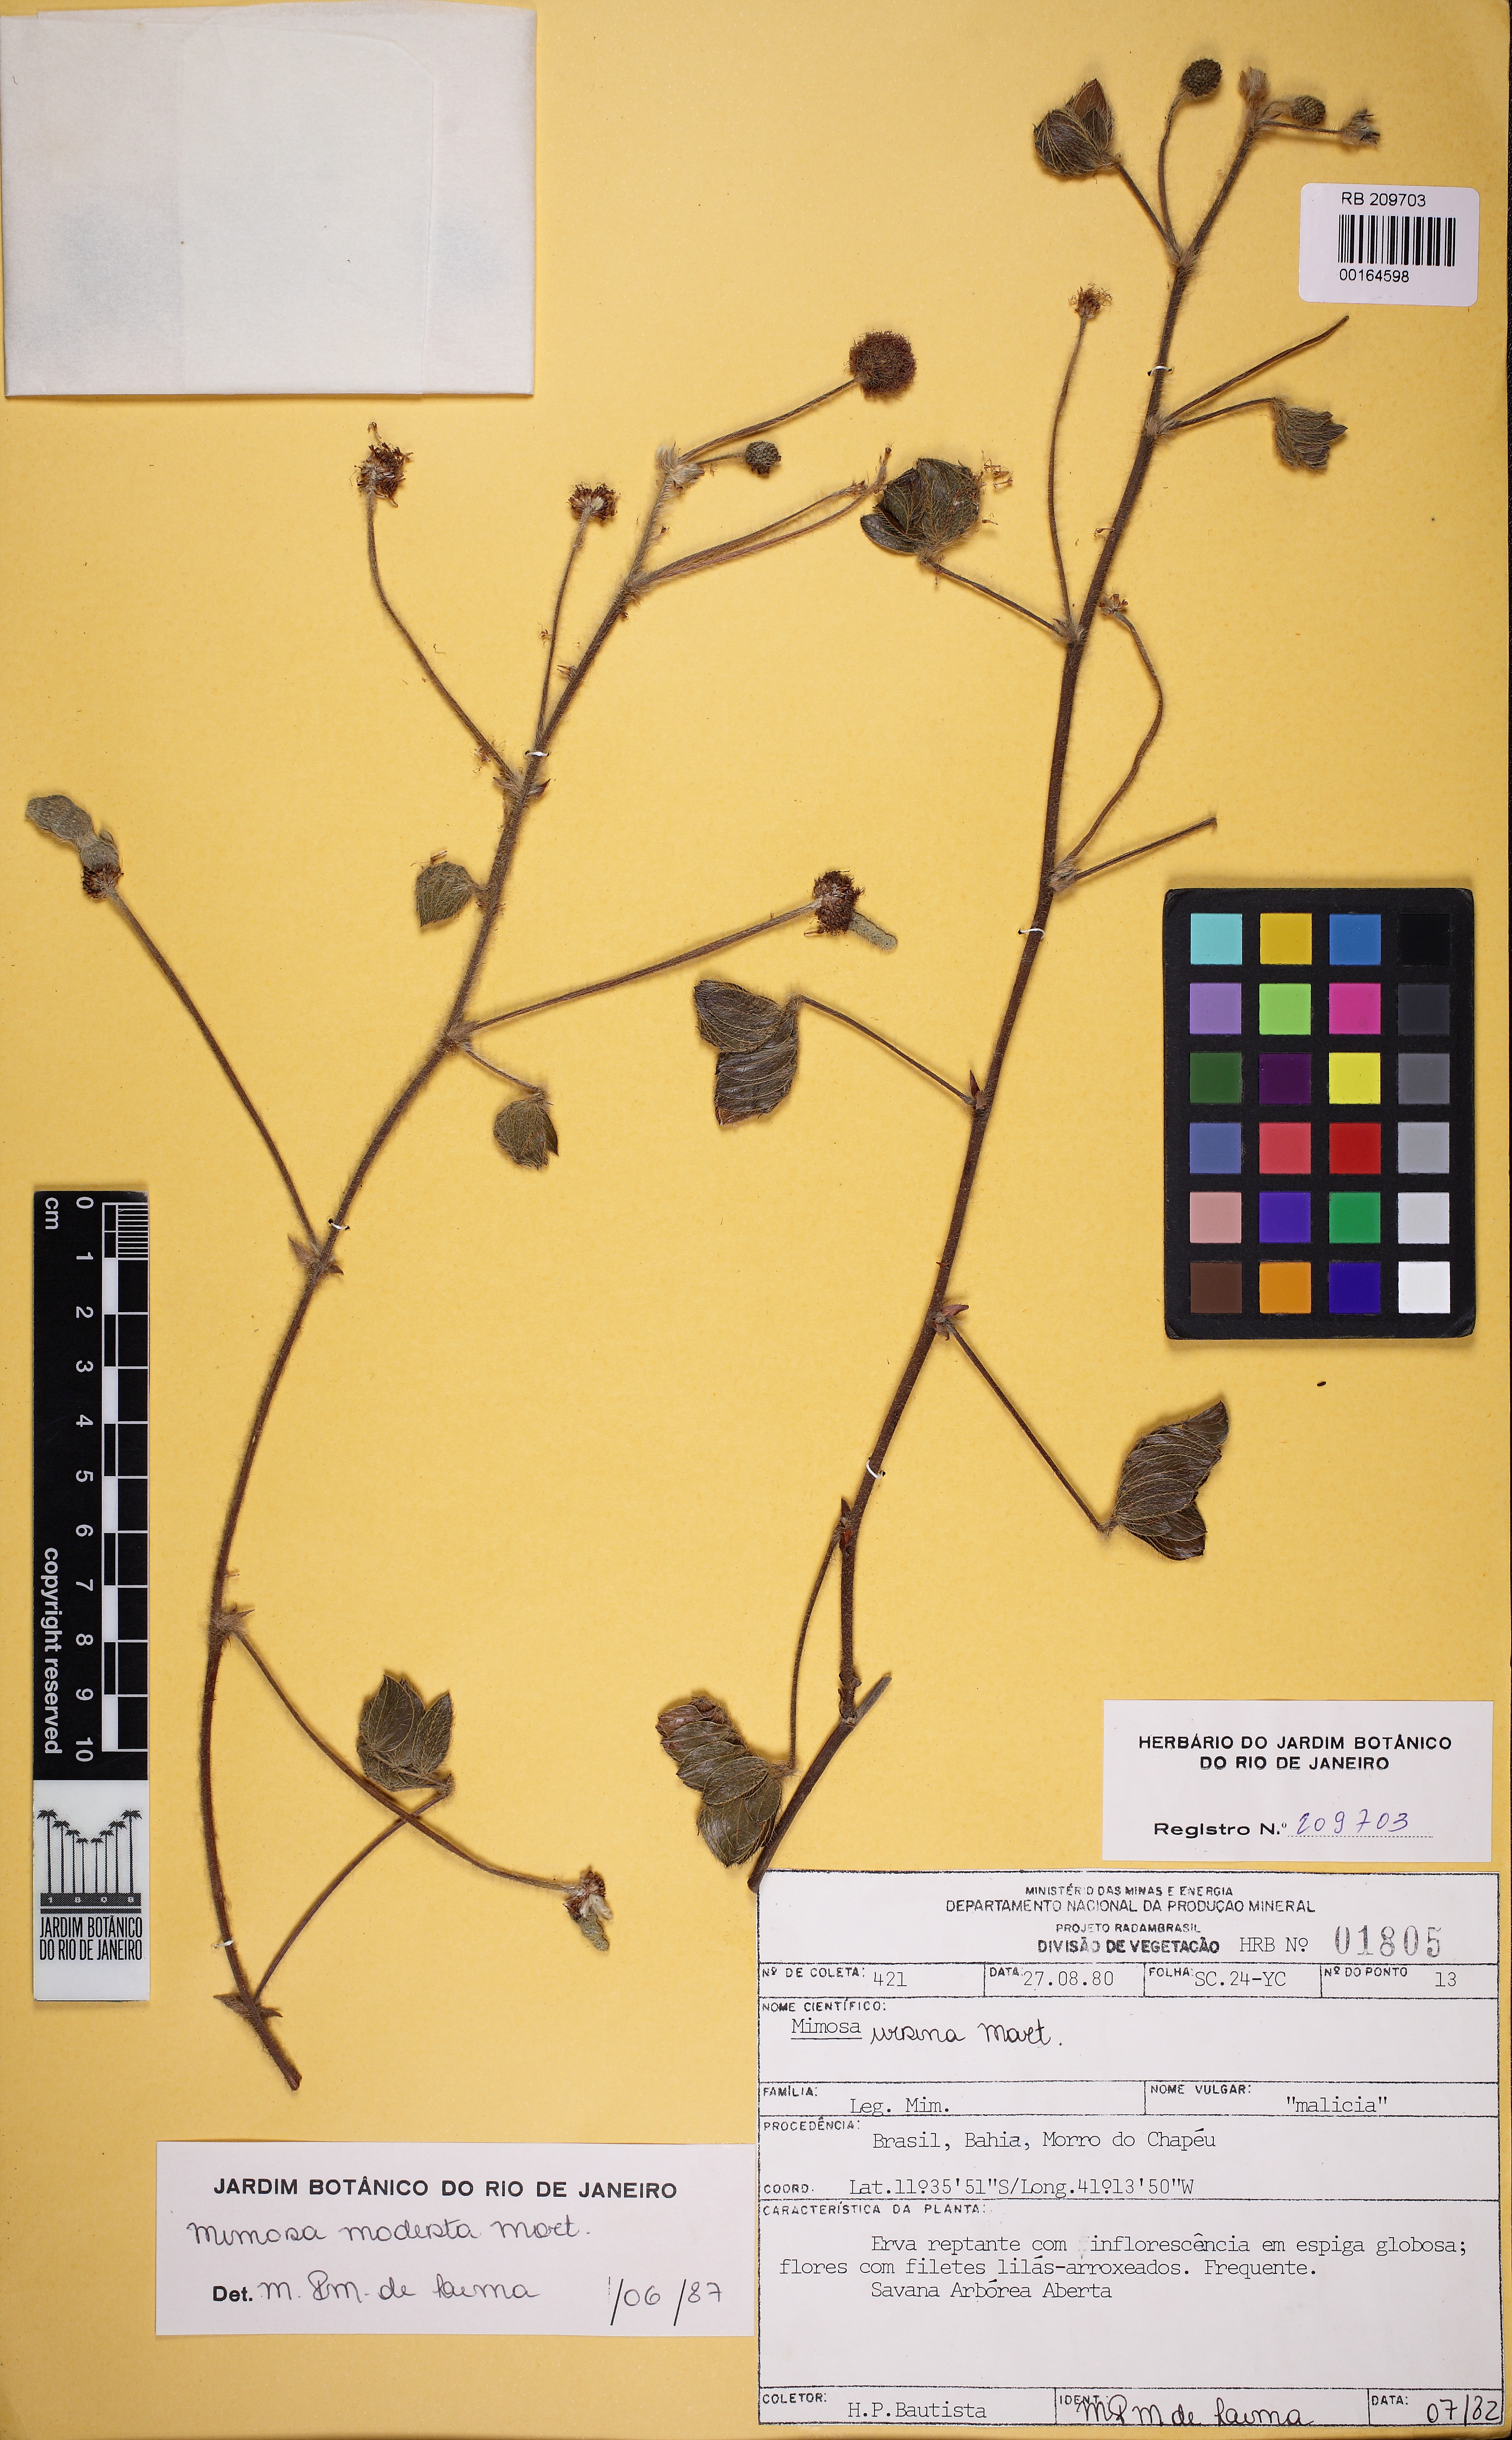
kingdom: Plantae
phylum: Tracheophyta
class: Magnoliopsida
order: Fabales
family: Fabaceae
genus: Mimosa
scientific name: Mimosa ursina
